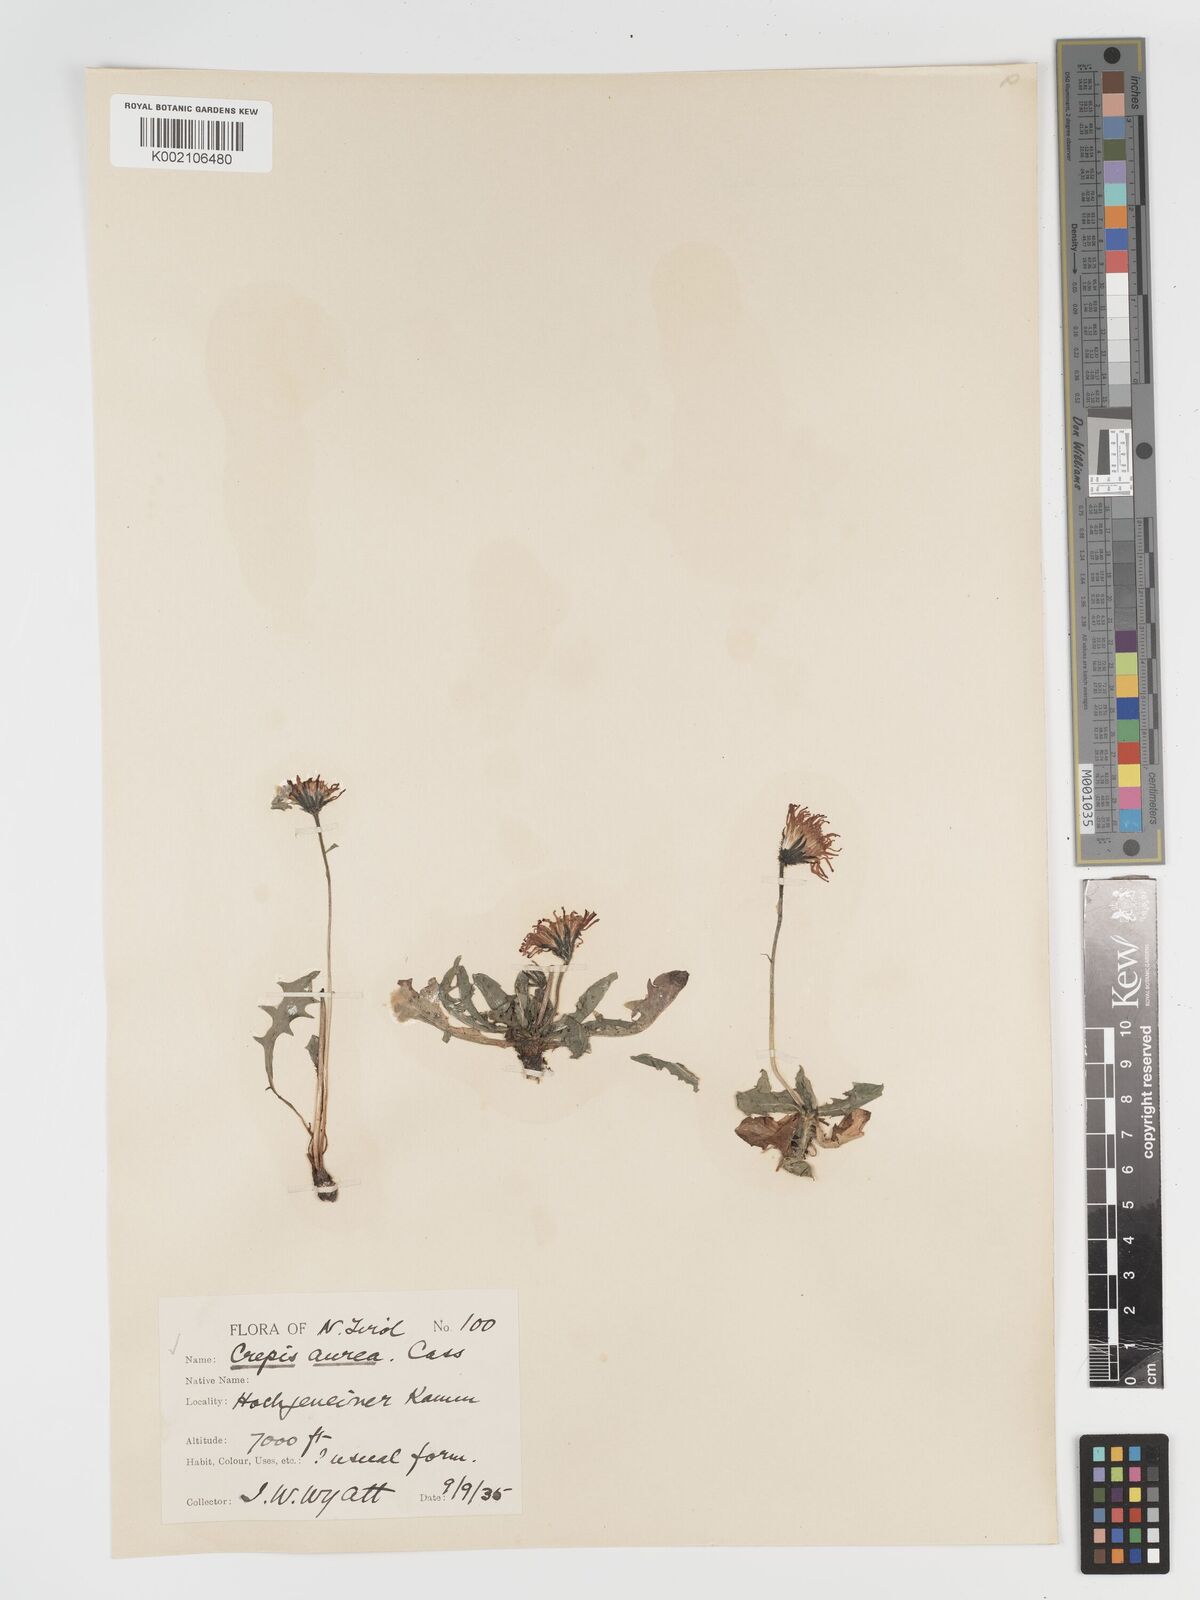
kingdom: Plantae
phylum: Tracheophyta
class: Magnoliopsida
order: Asterales
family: Asteraceae
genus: Crepis
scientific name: Crepis aurea
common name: Golden hawk's-beard
